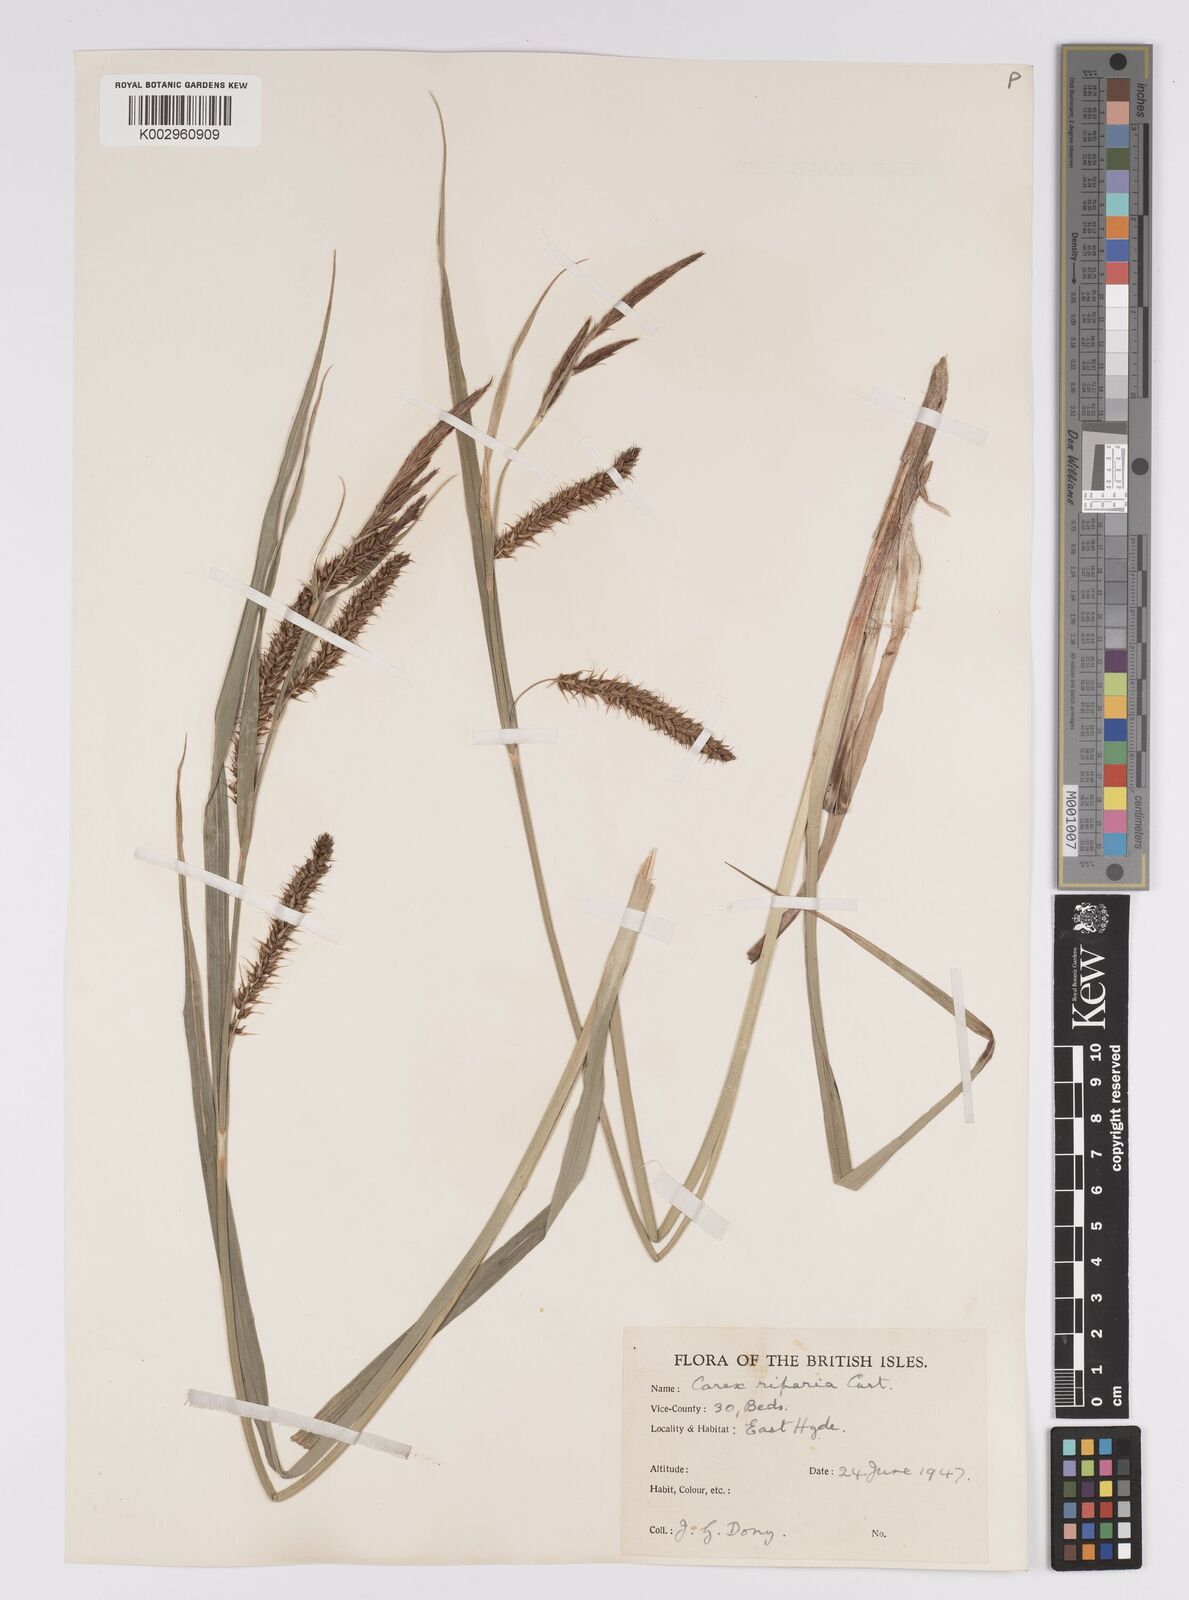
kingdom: Plantae
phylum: Tracheophyta
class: Liliopsida
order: Poales
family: Cyperaceae
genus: Carex
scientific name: Carex riparia
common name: Greater pond-sedge
